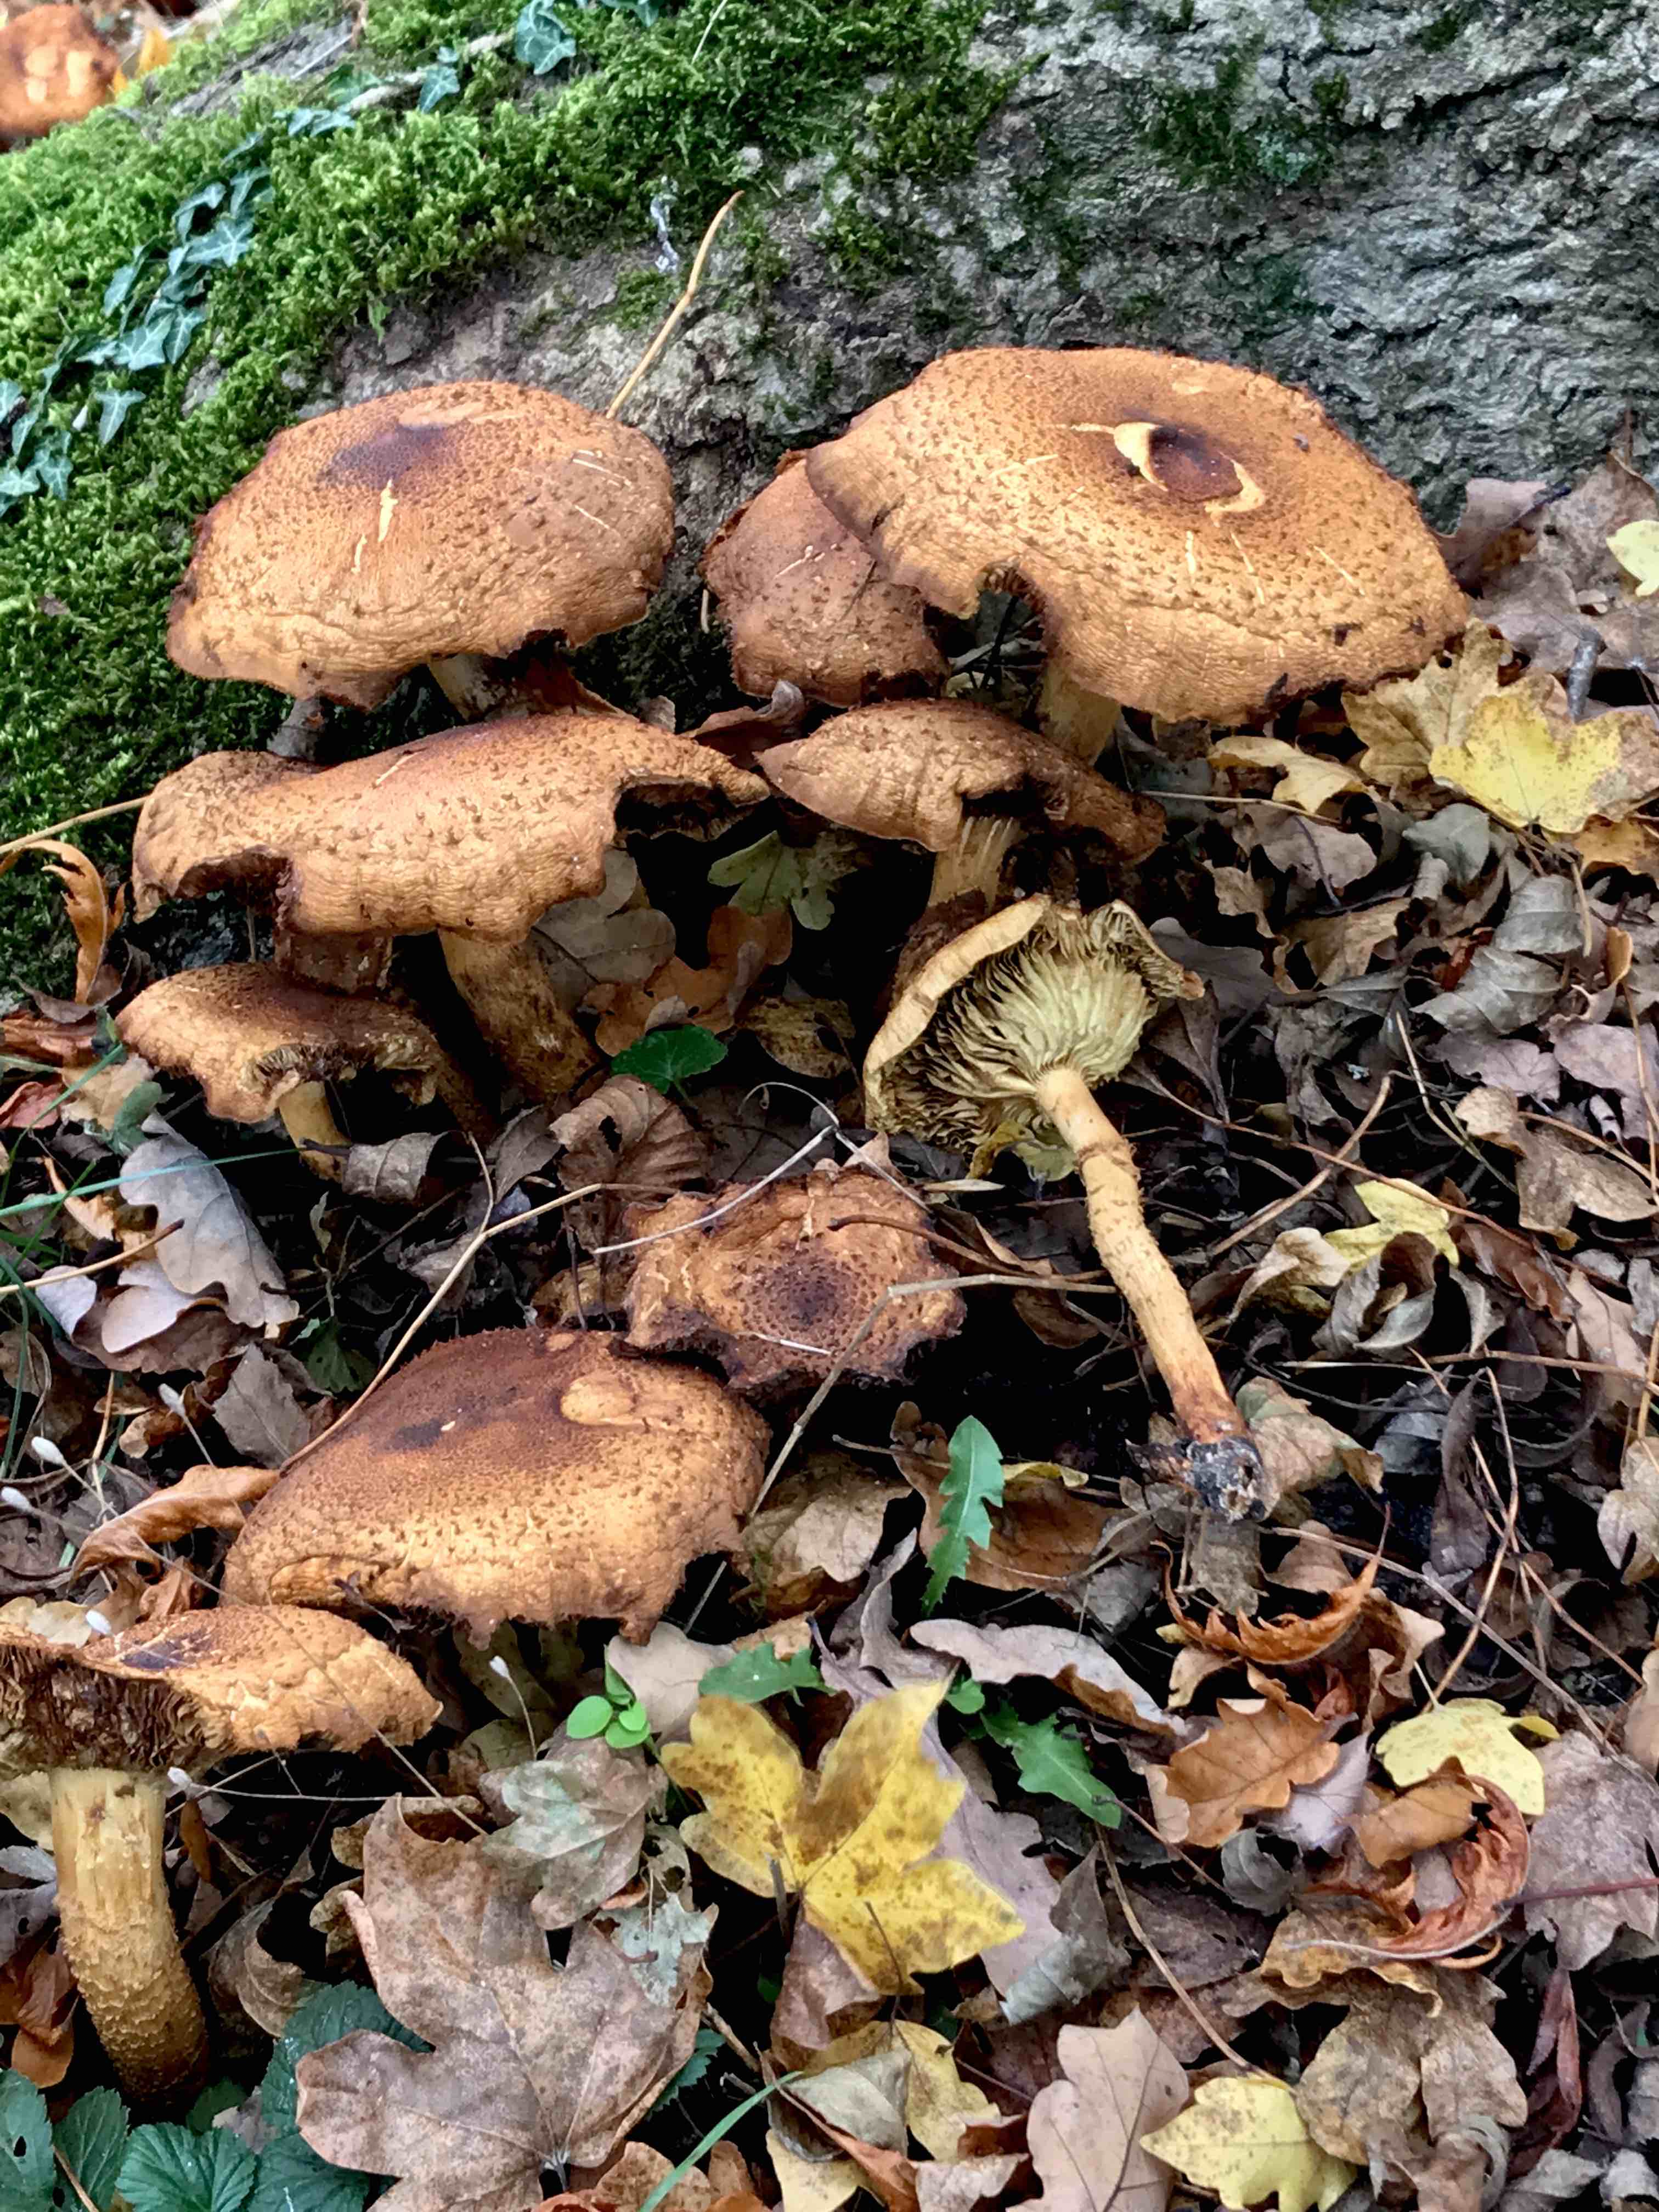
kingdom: Fungi
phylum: Basidiomycota
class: Agaricomycetes
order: Agaricales
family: Strophariaceae
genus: Pholiota
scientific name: Pholiota squarrosa
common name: krumskællet skælhat
